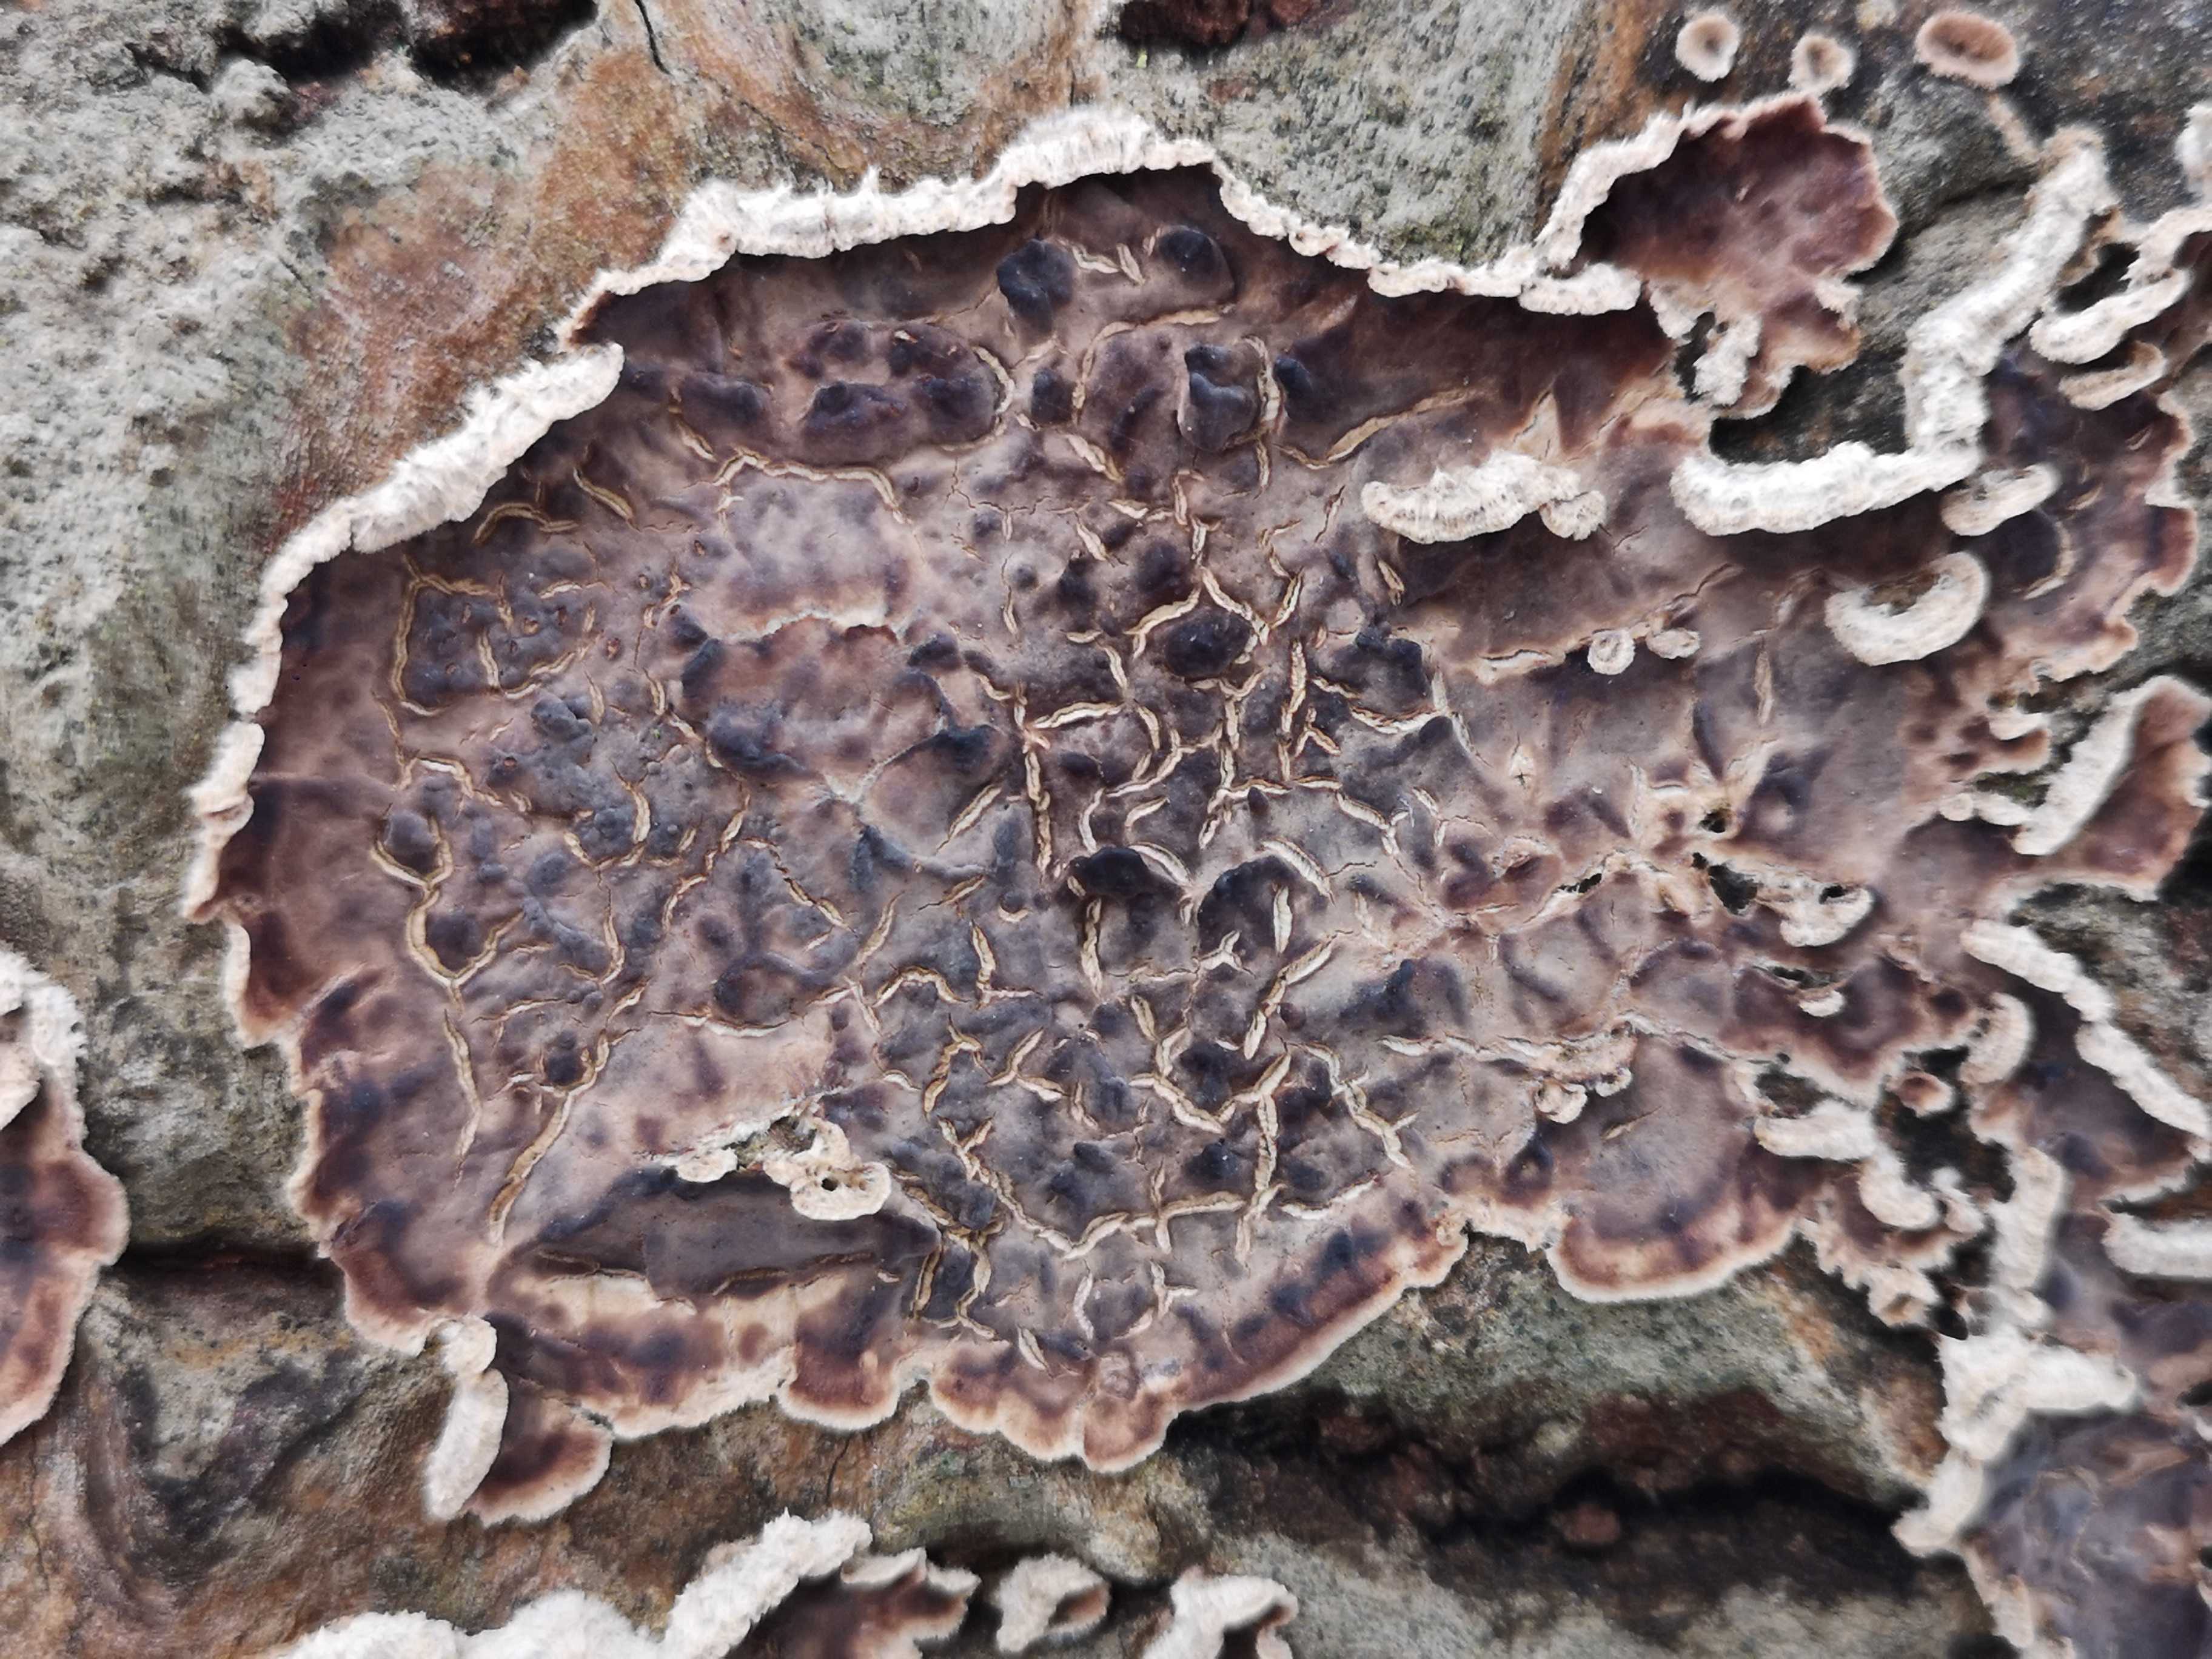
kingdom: Fungi
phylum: Basidiomycota
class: Agaricomycetes
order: Agaricales
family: Cyphellaceae
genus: Chondrostereum
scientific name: Chondrostereum purpureum
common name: purpurlædersvamp
